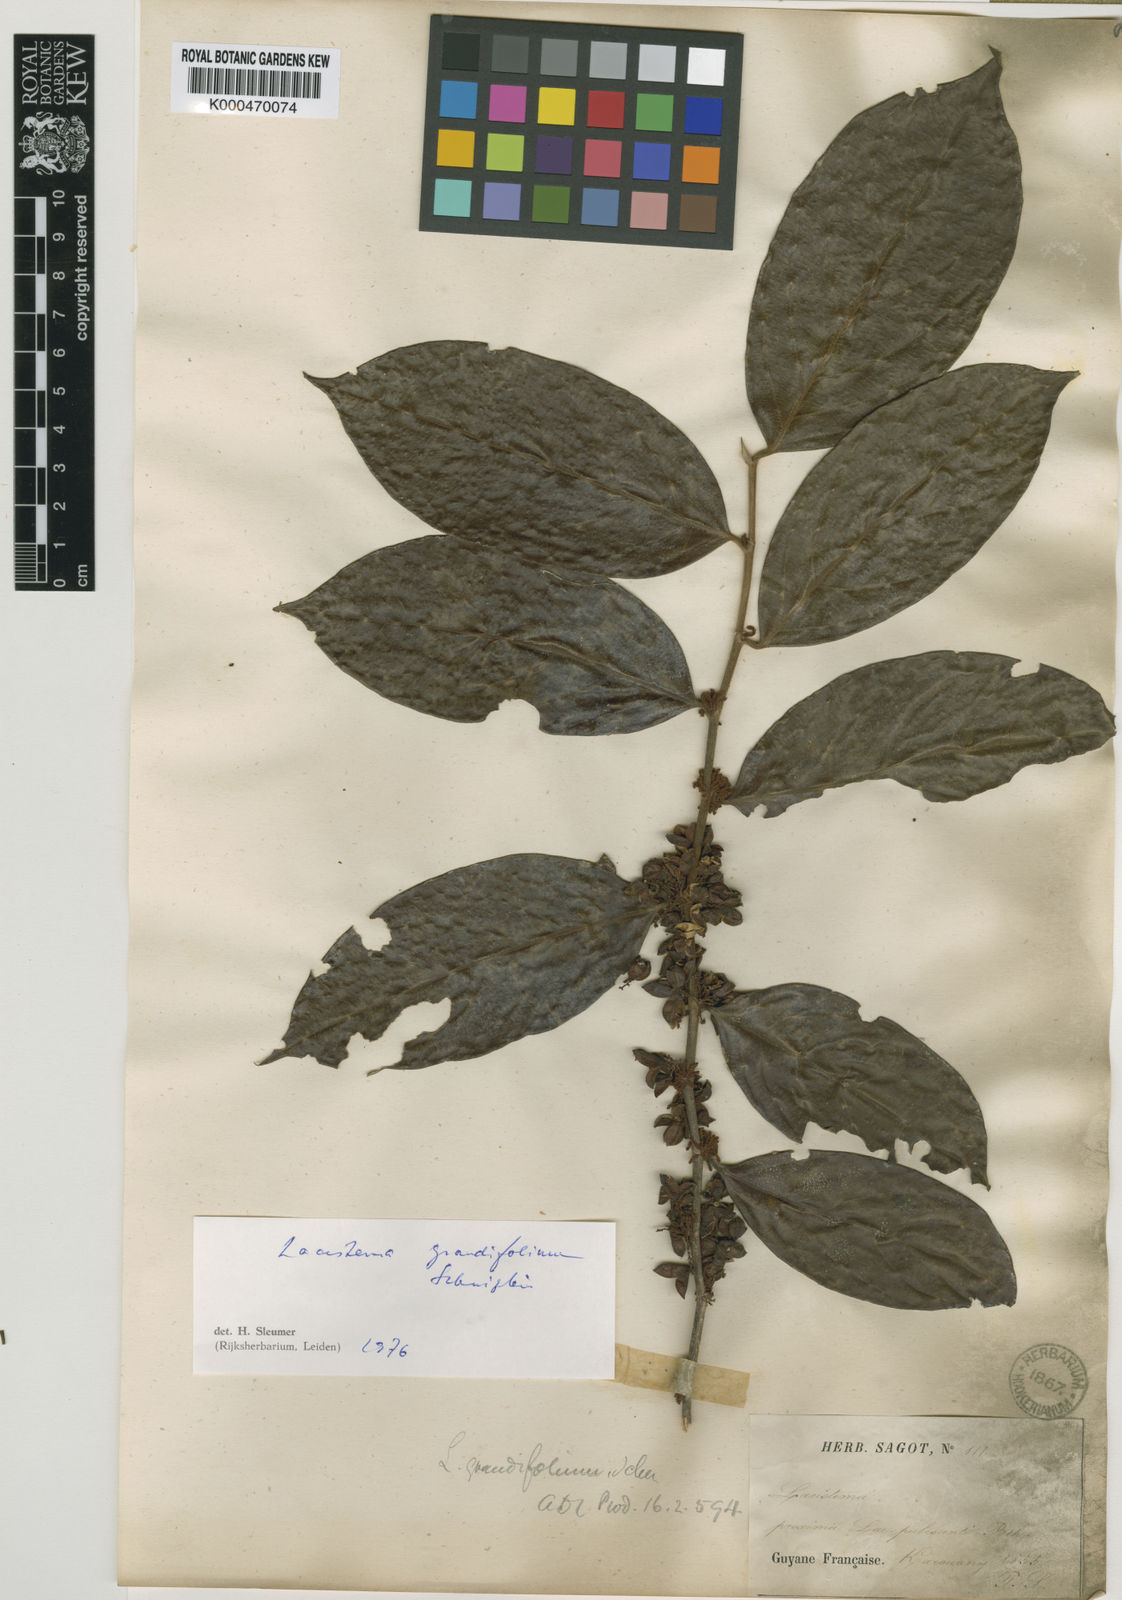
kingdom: Plantae
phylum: Tracheophyta
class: Magnoliopsida
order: Malpighiales
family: Lacistemataceae
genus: Lacistema
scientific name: Lacistema grandifolium
